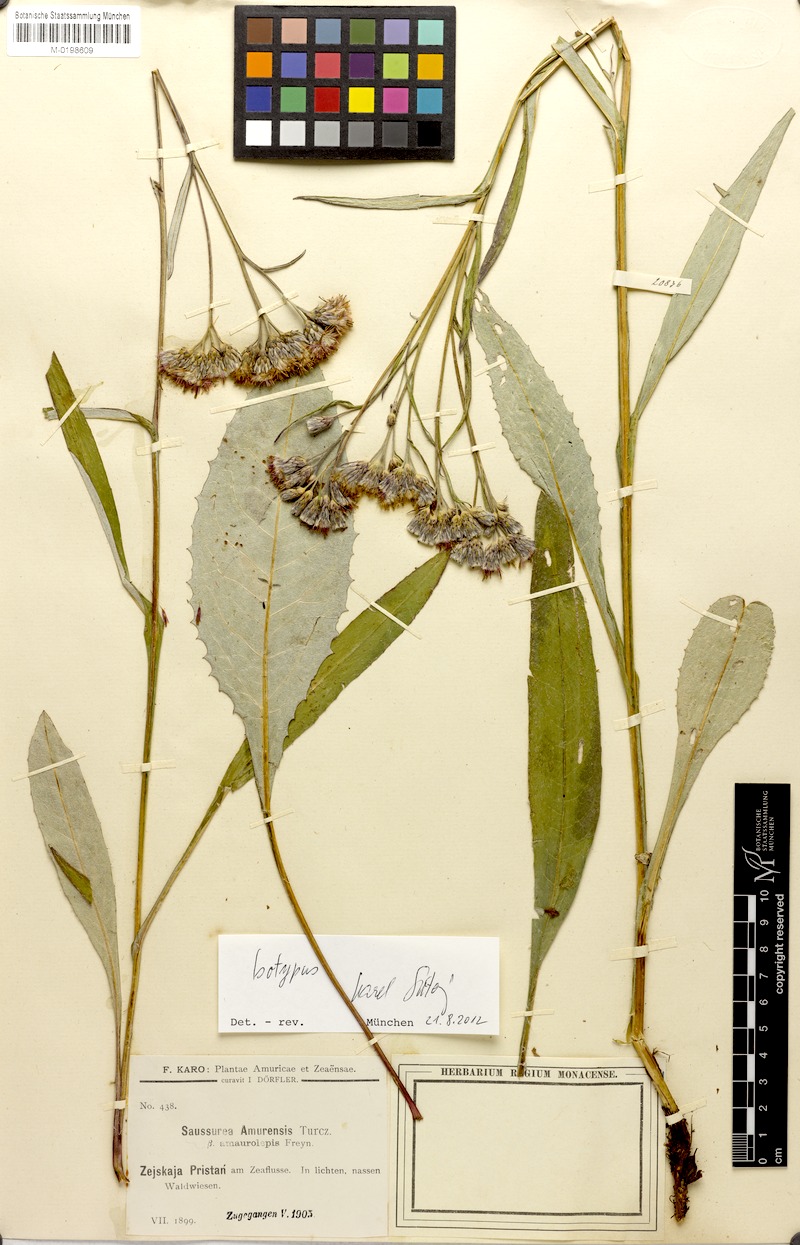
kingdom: Plantae
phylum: Tracheophyta
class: Magnoliopsida
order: Asterales
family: Asteraceae
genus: Saussurea
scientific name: Saussurea amurensis
